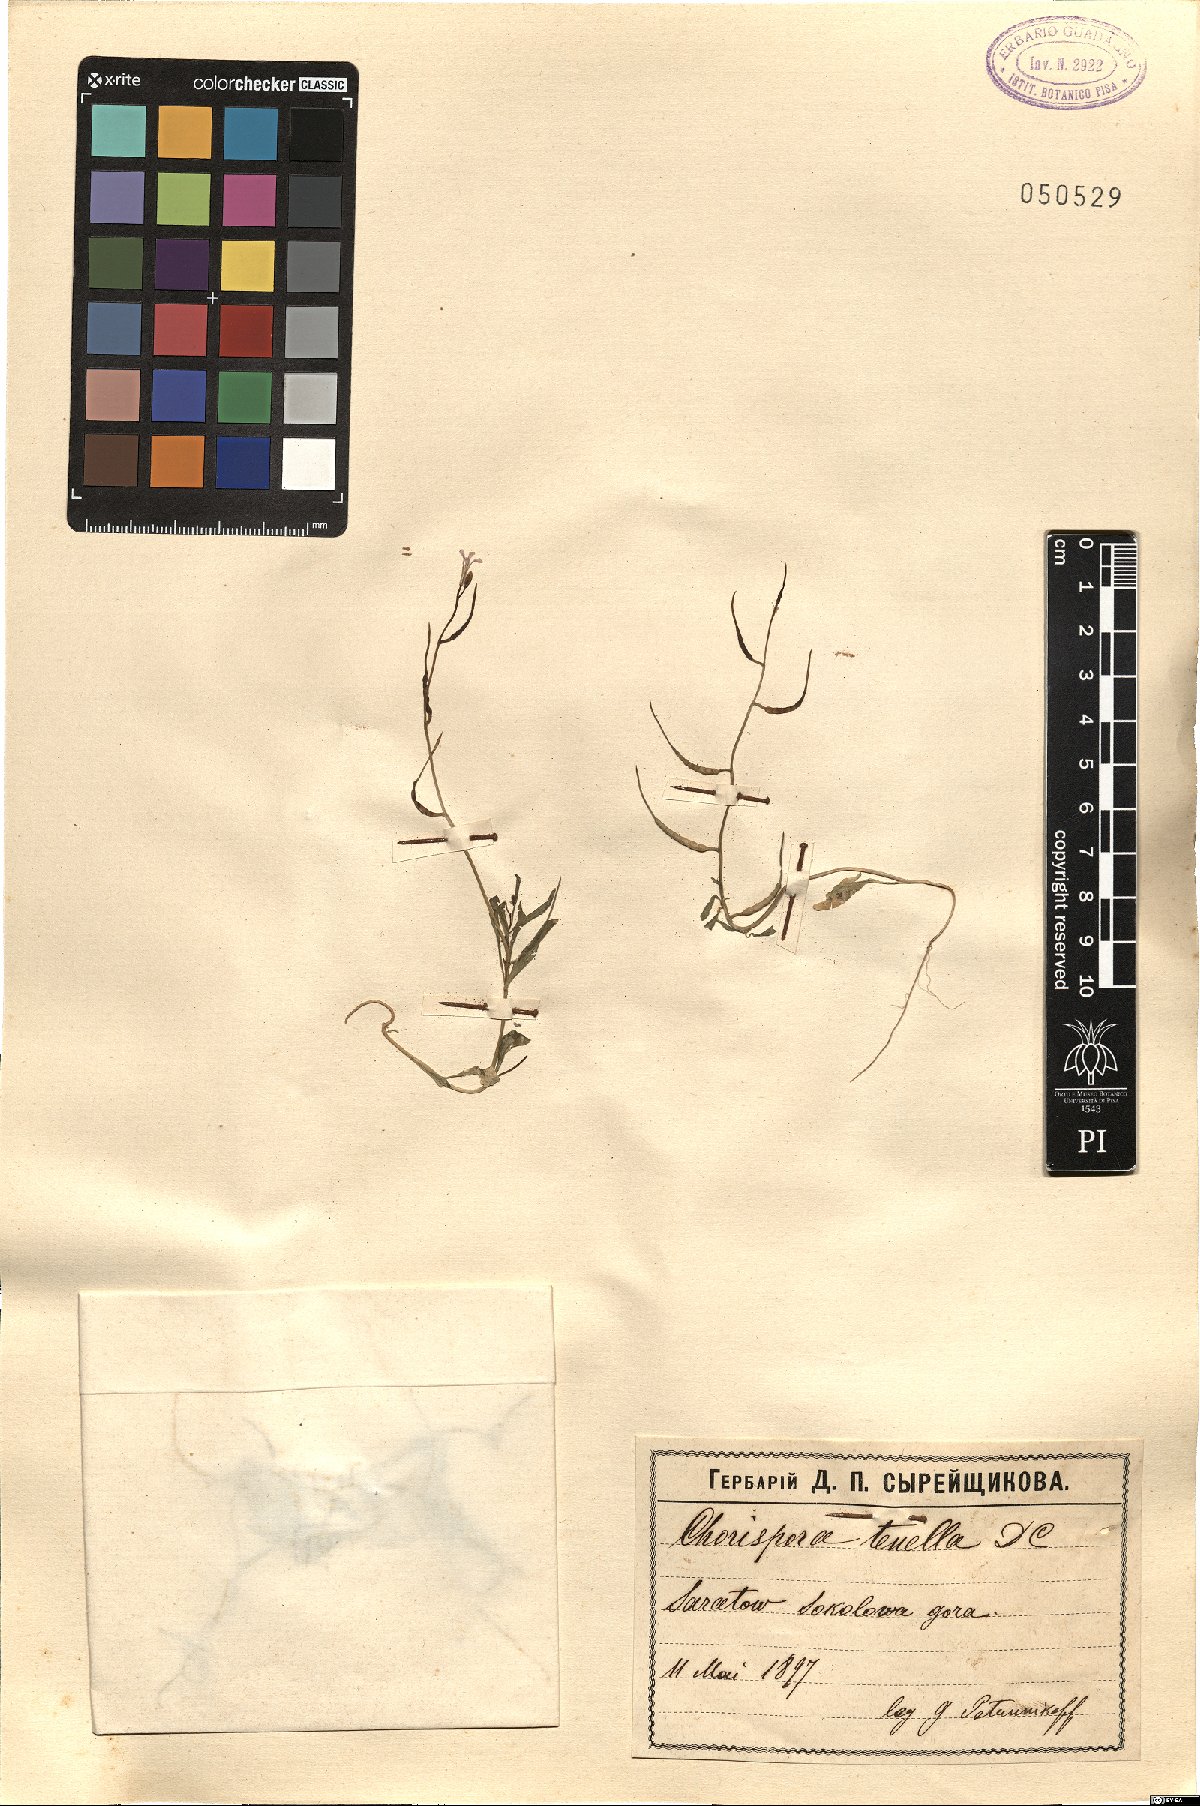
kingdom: Plantae
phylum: Tracheophyta
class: Magnoliopsida
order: Brassicales
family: Brassicaceae
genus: Chorispora
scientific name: Chorispora tenella
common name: Crossflower
